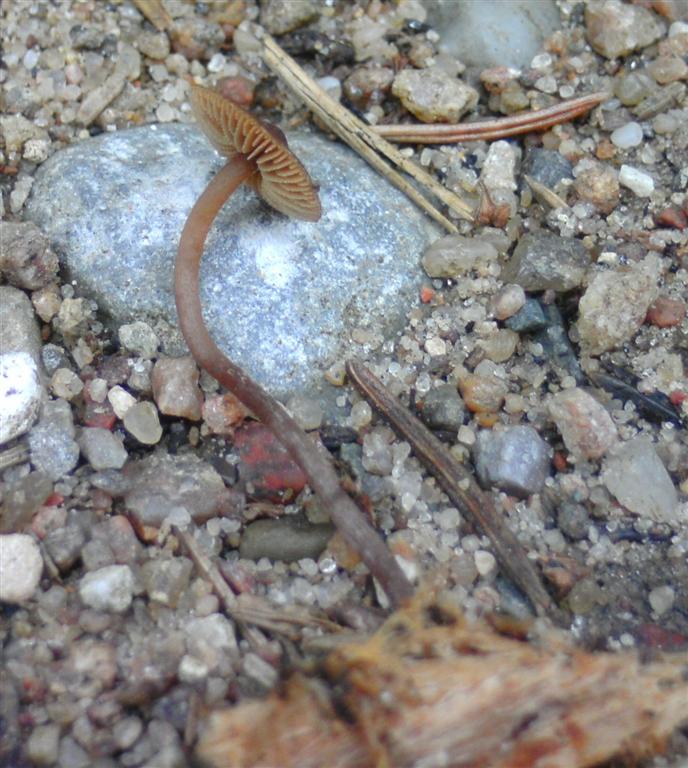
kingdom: Fungi
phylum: Basidiomycota
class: Agaricomycetes
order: Agaricales
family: Hymenogastraceae
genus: Galerina
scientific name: Galerina triscopa
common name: spidspuklet hjelmhat
